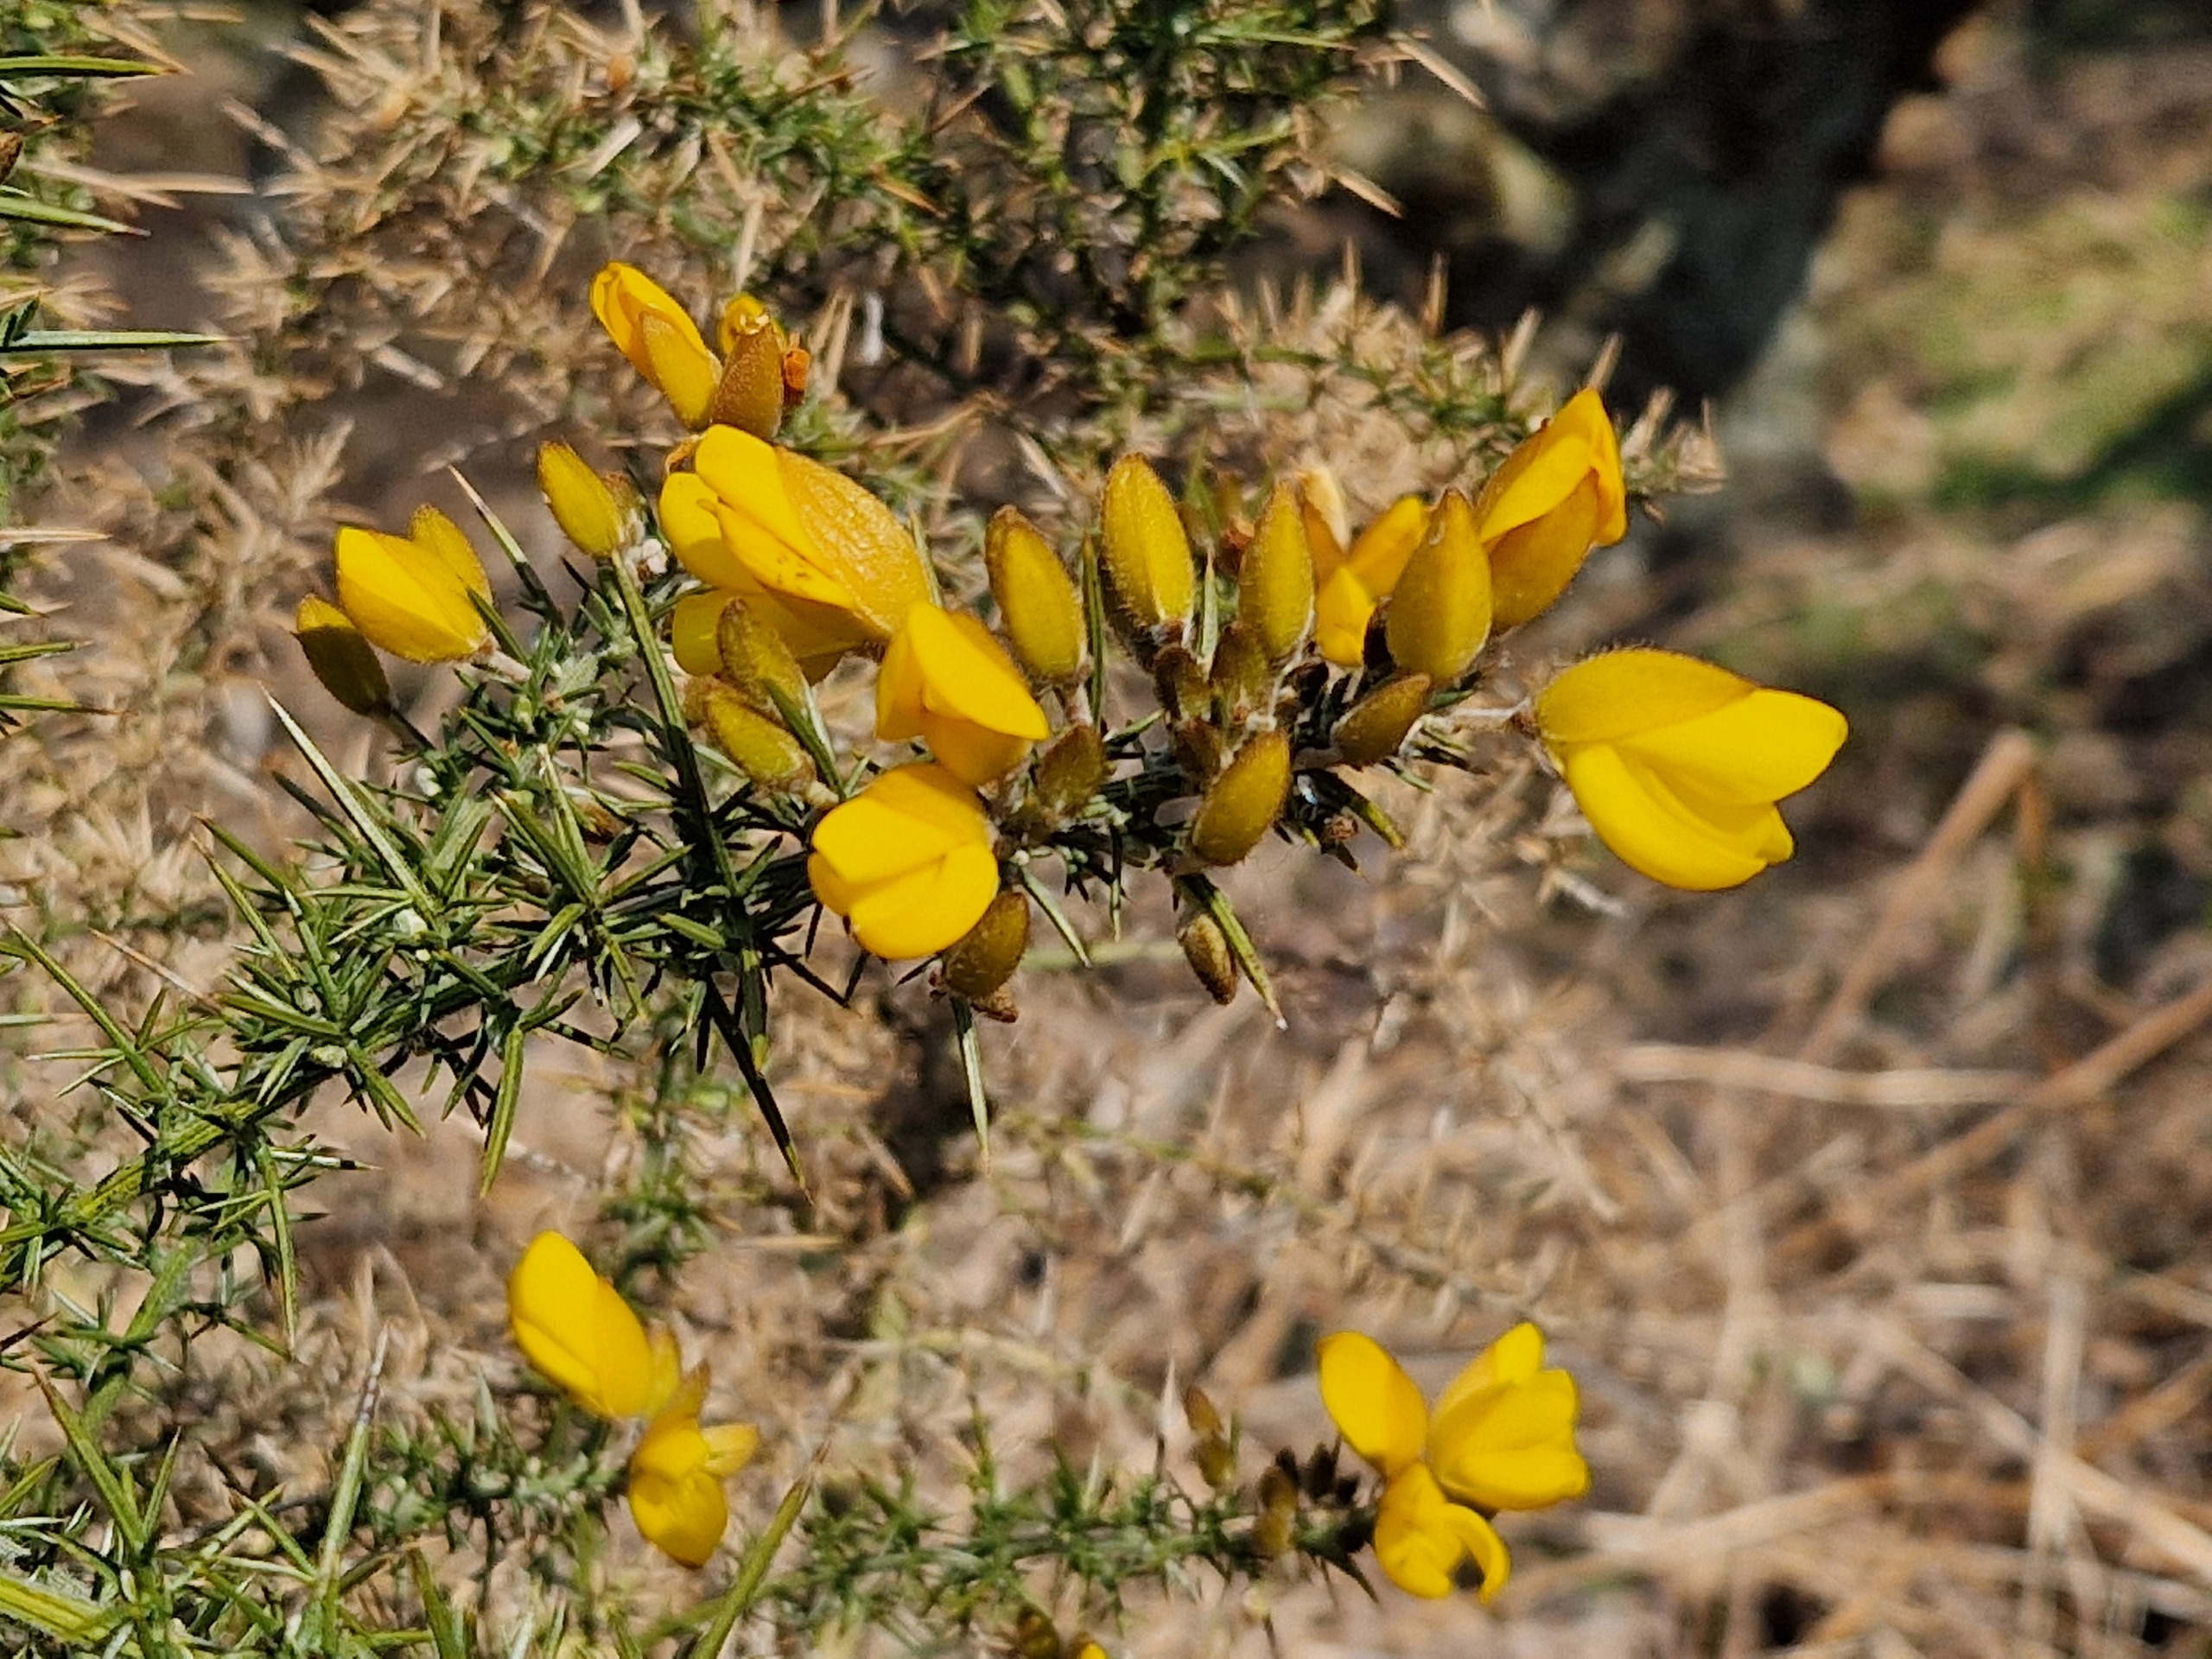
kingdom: Plantae
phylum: Tracheophyta
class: Magnoliopsida
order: Fabales
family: Fabaceae
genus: Ulex
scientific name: Ulex europaeus
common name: Tornblad
